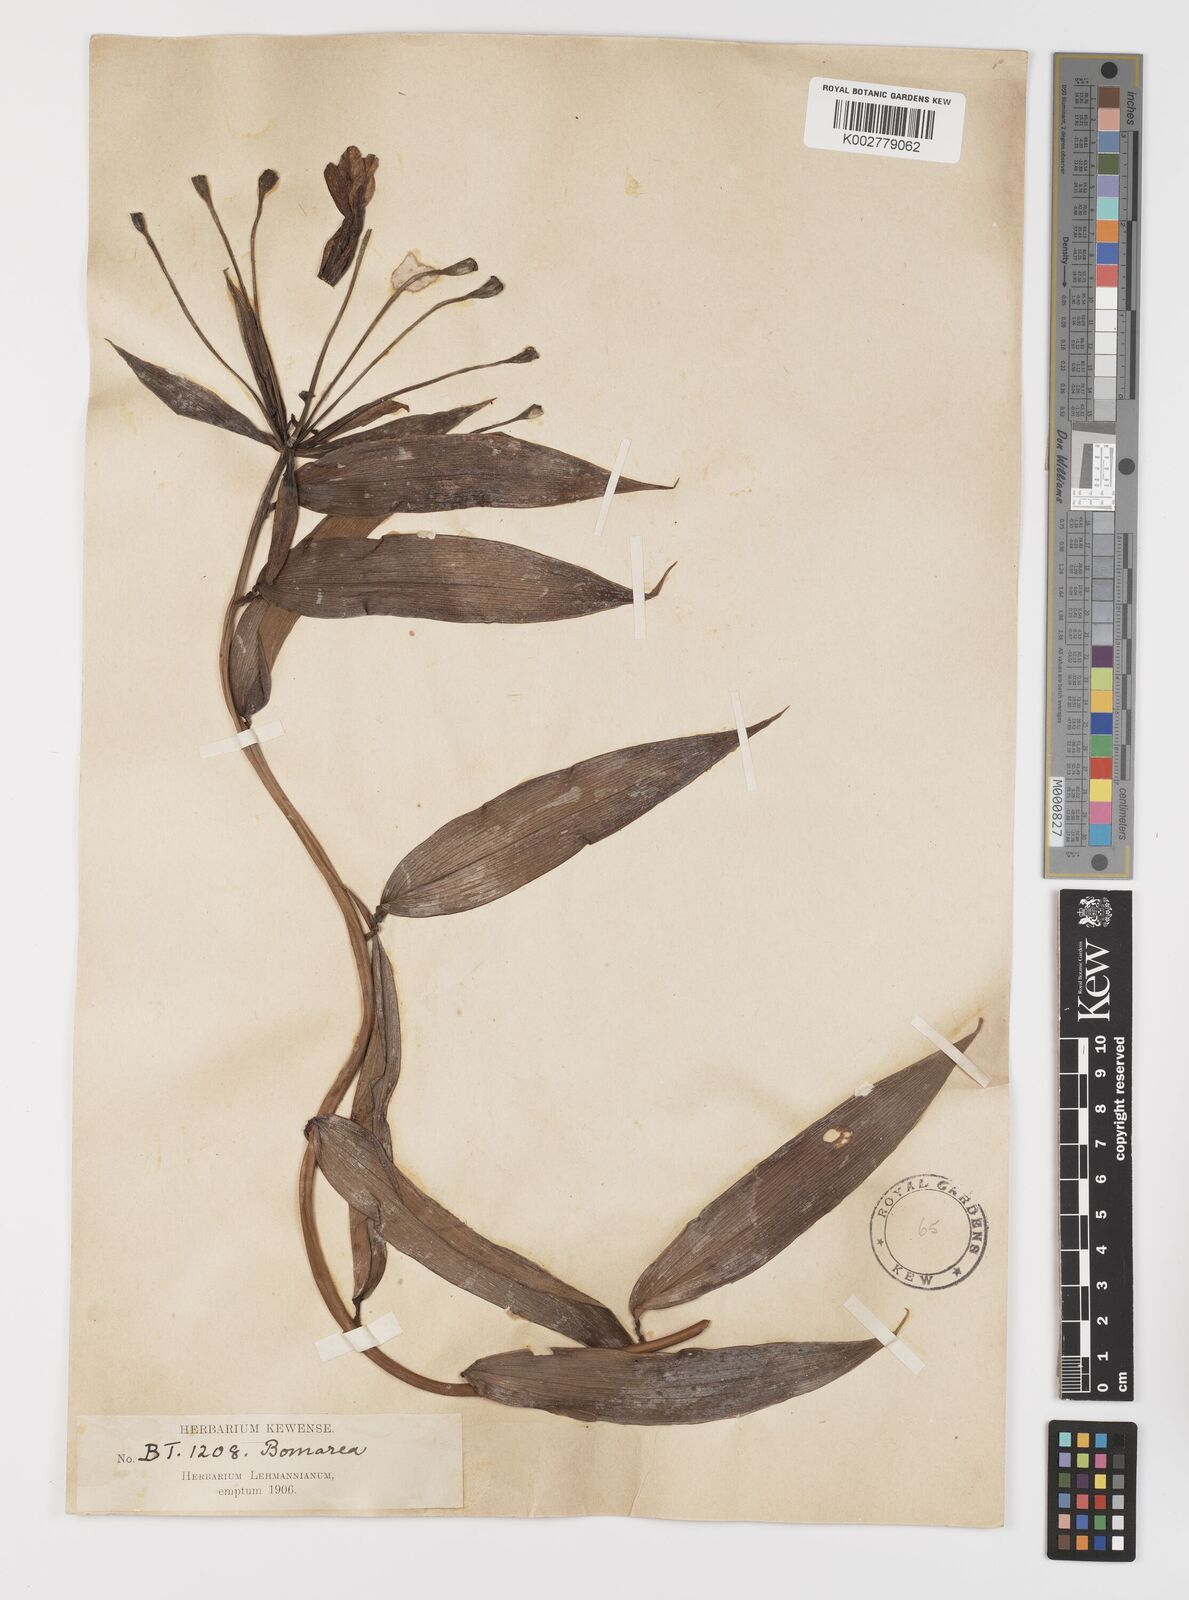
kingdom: Plantae
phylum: Tracheophyta
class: Liliopsida
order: Liliales
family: Alstroemeriaceae
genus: Bomarea
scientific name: Bomarea
